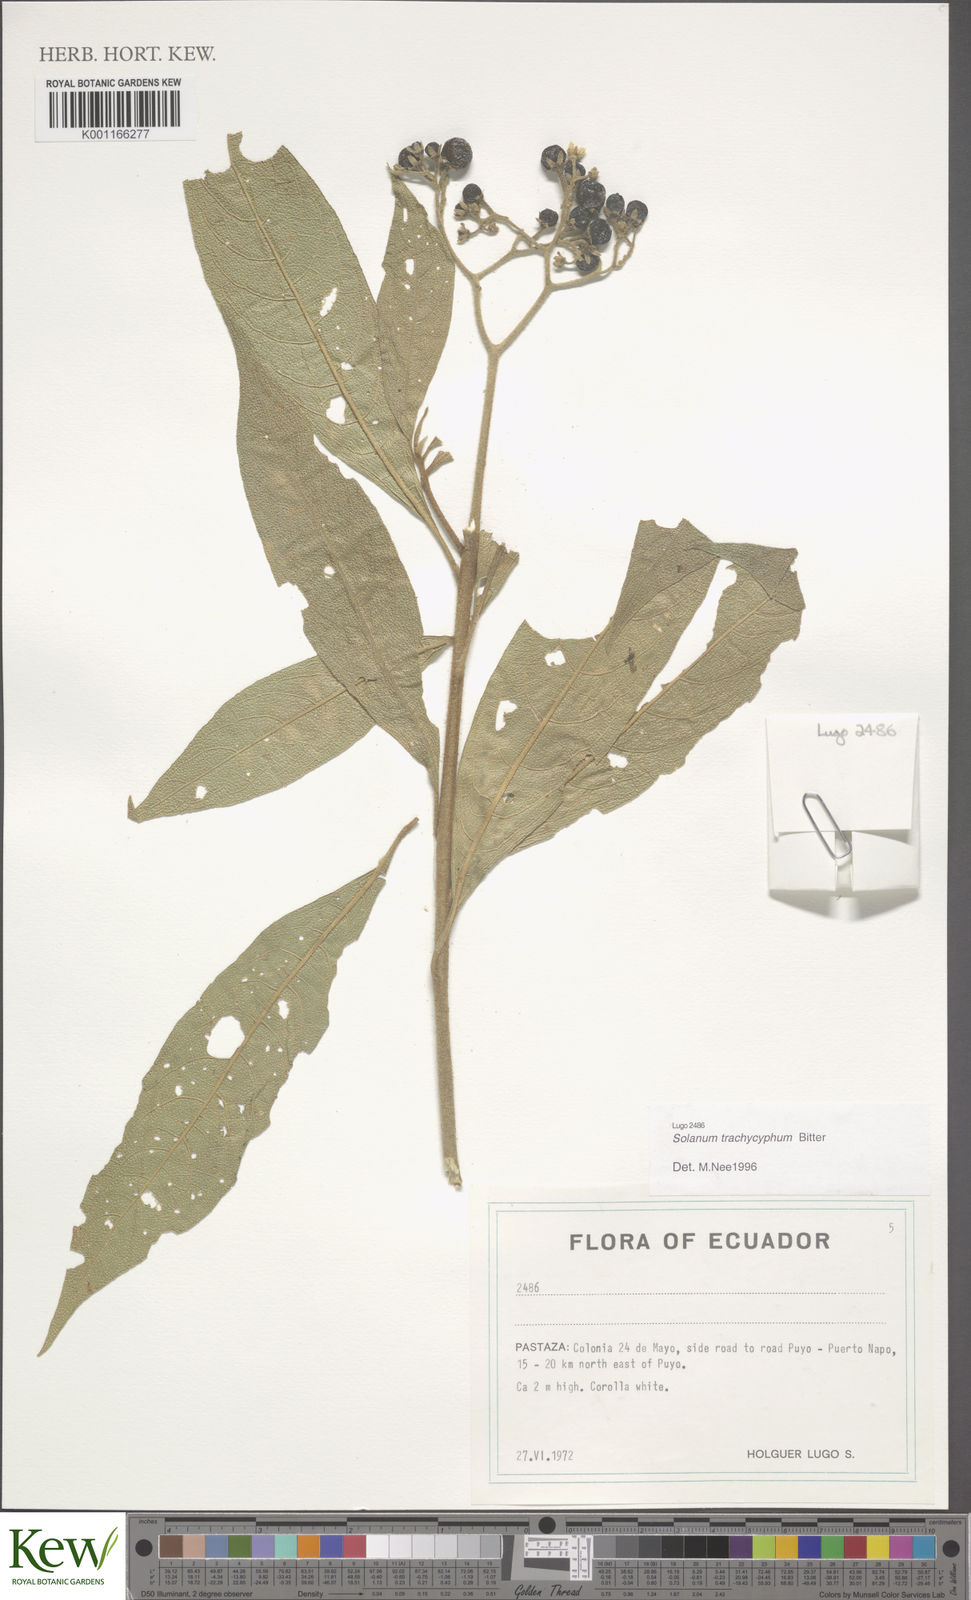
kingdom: Plantae
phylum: Tracheophyta
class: Magnoliopsida
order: Solanales
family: Solanaceae
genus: Solanum
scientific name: Solanum trachycyphum
